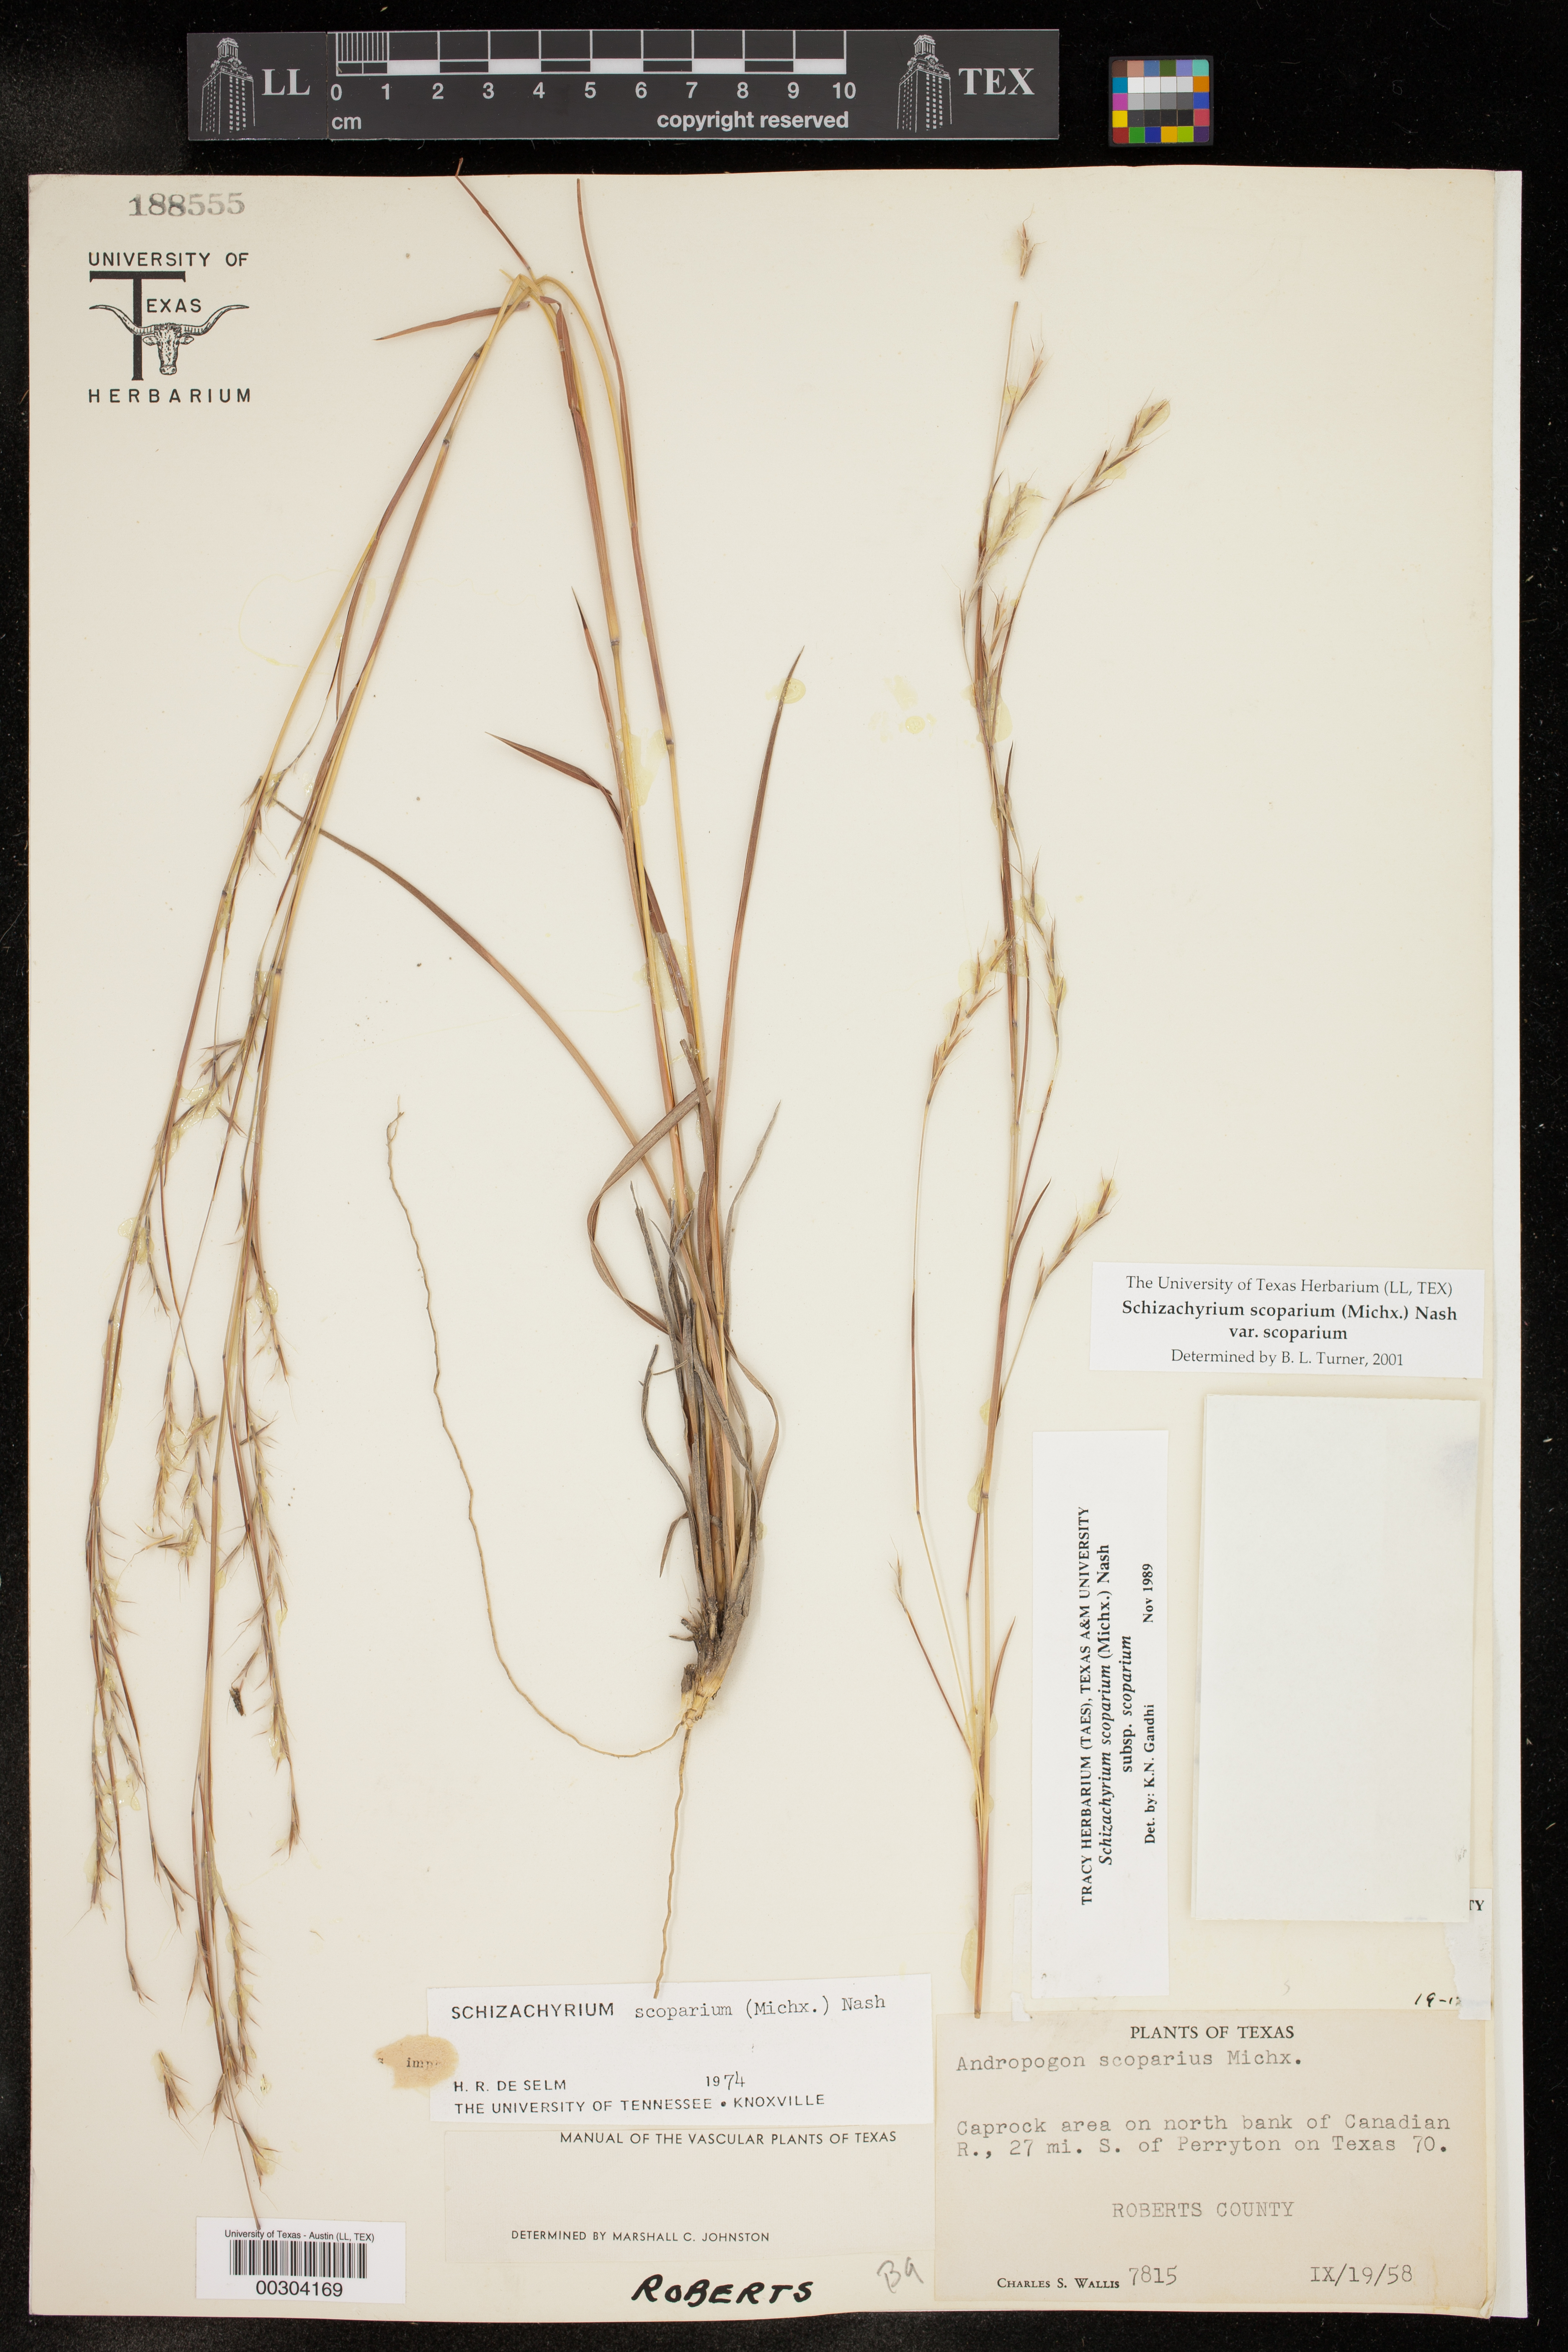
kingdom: Plantae
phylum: Tracheophyta
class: Liliopsida
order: Poales
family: Poaceae
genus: Schizachyrium
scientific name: Schizachyrium scoparium
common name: Little bluestem
